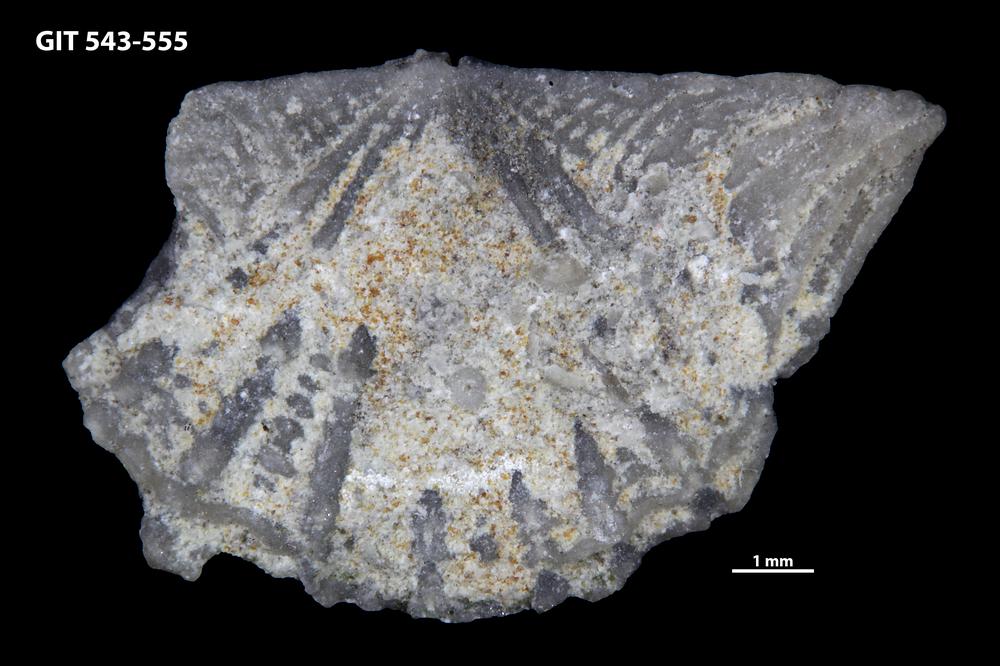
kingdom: Animalia
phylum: Brachiopoda
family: Kullervoidae
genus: Kullervo
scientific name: Kullervo
